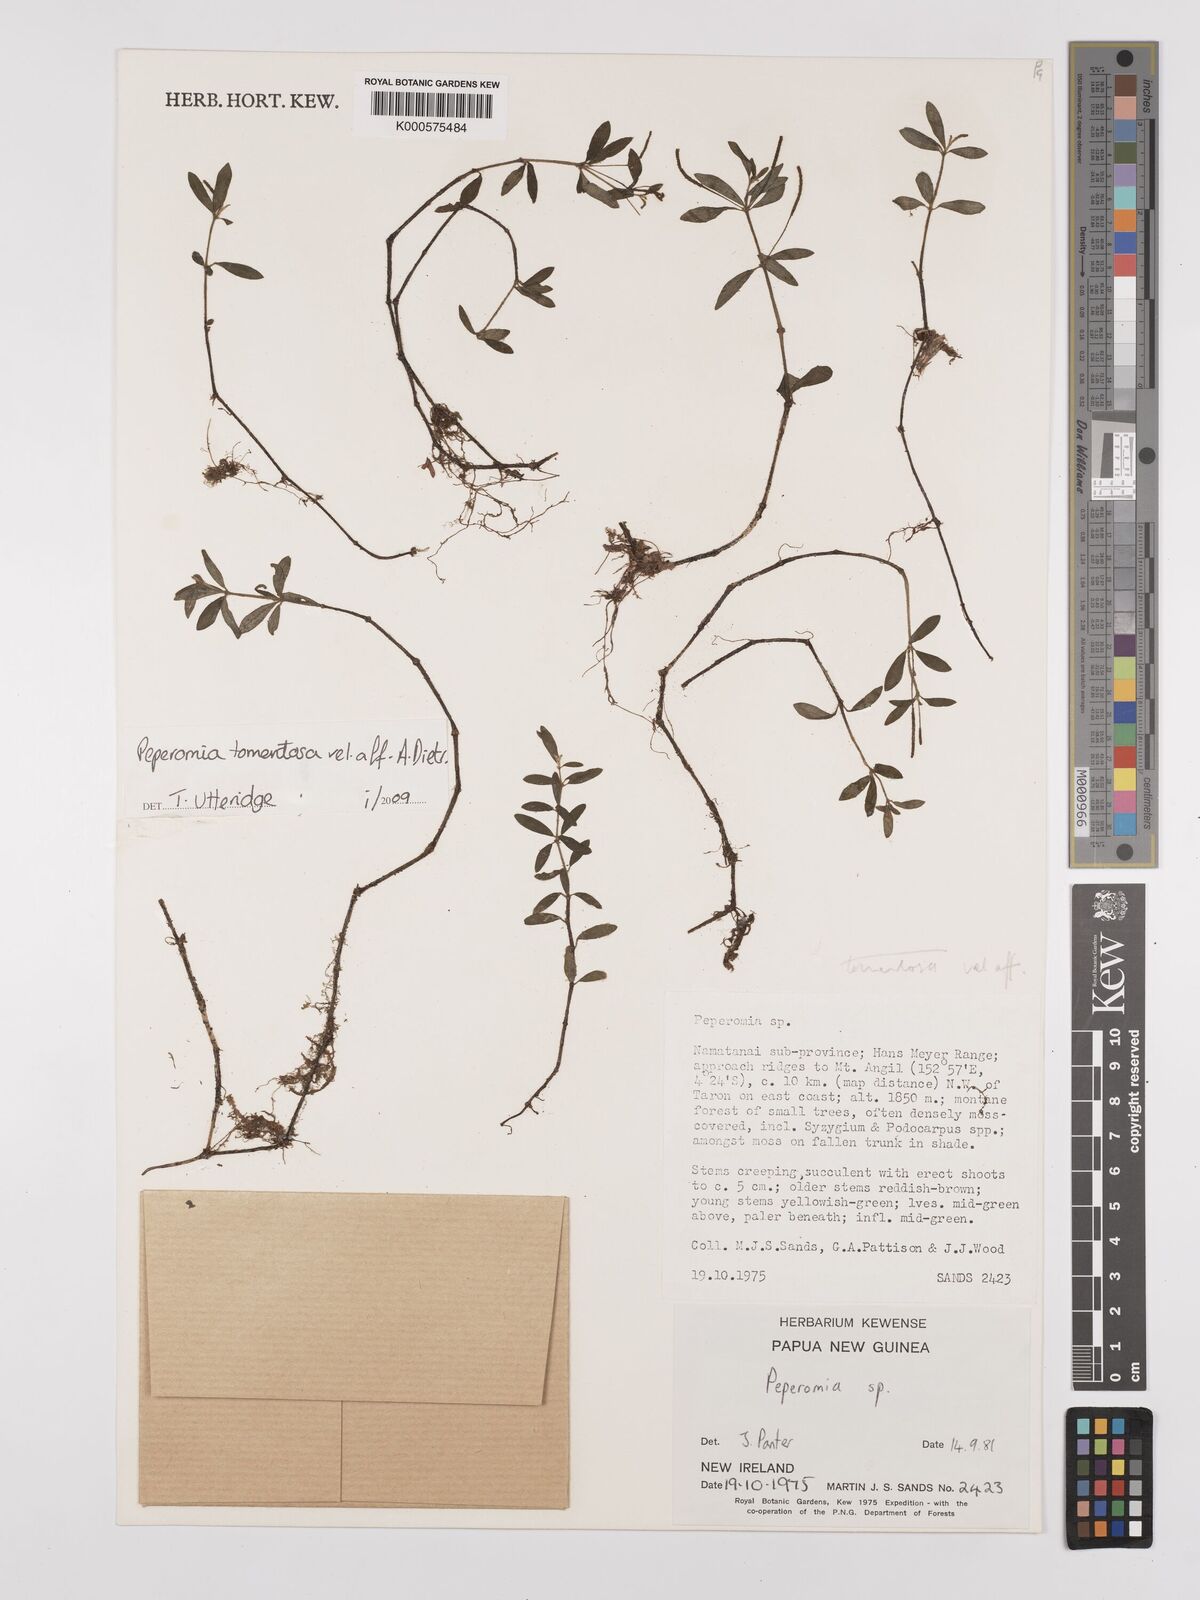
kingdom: Plantae
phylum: Tracheophyta
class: Magnoliopsida
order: Piperales
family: Piperaceae
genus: Peperomia
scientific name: Peperomia
